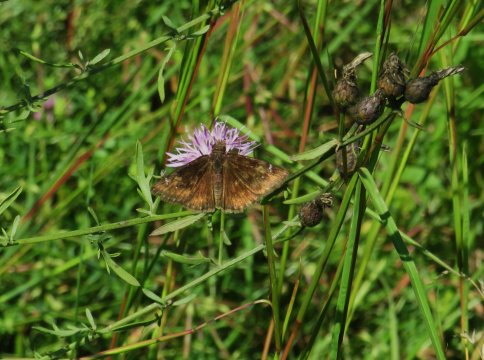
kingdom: Animalia
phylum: Arthropoda
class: Insecta
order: Lepidoptera
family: Hesperiidae
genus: Gesta
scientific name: Gesta
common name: Horace's Duskywing
